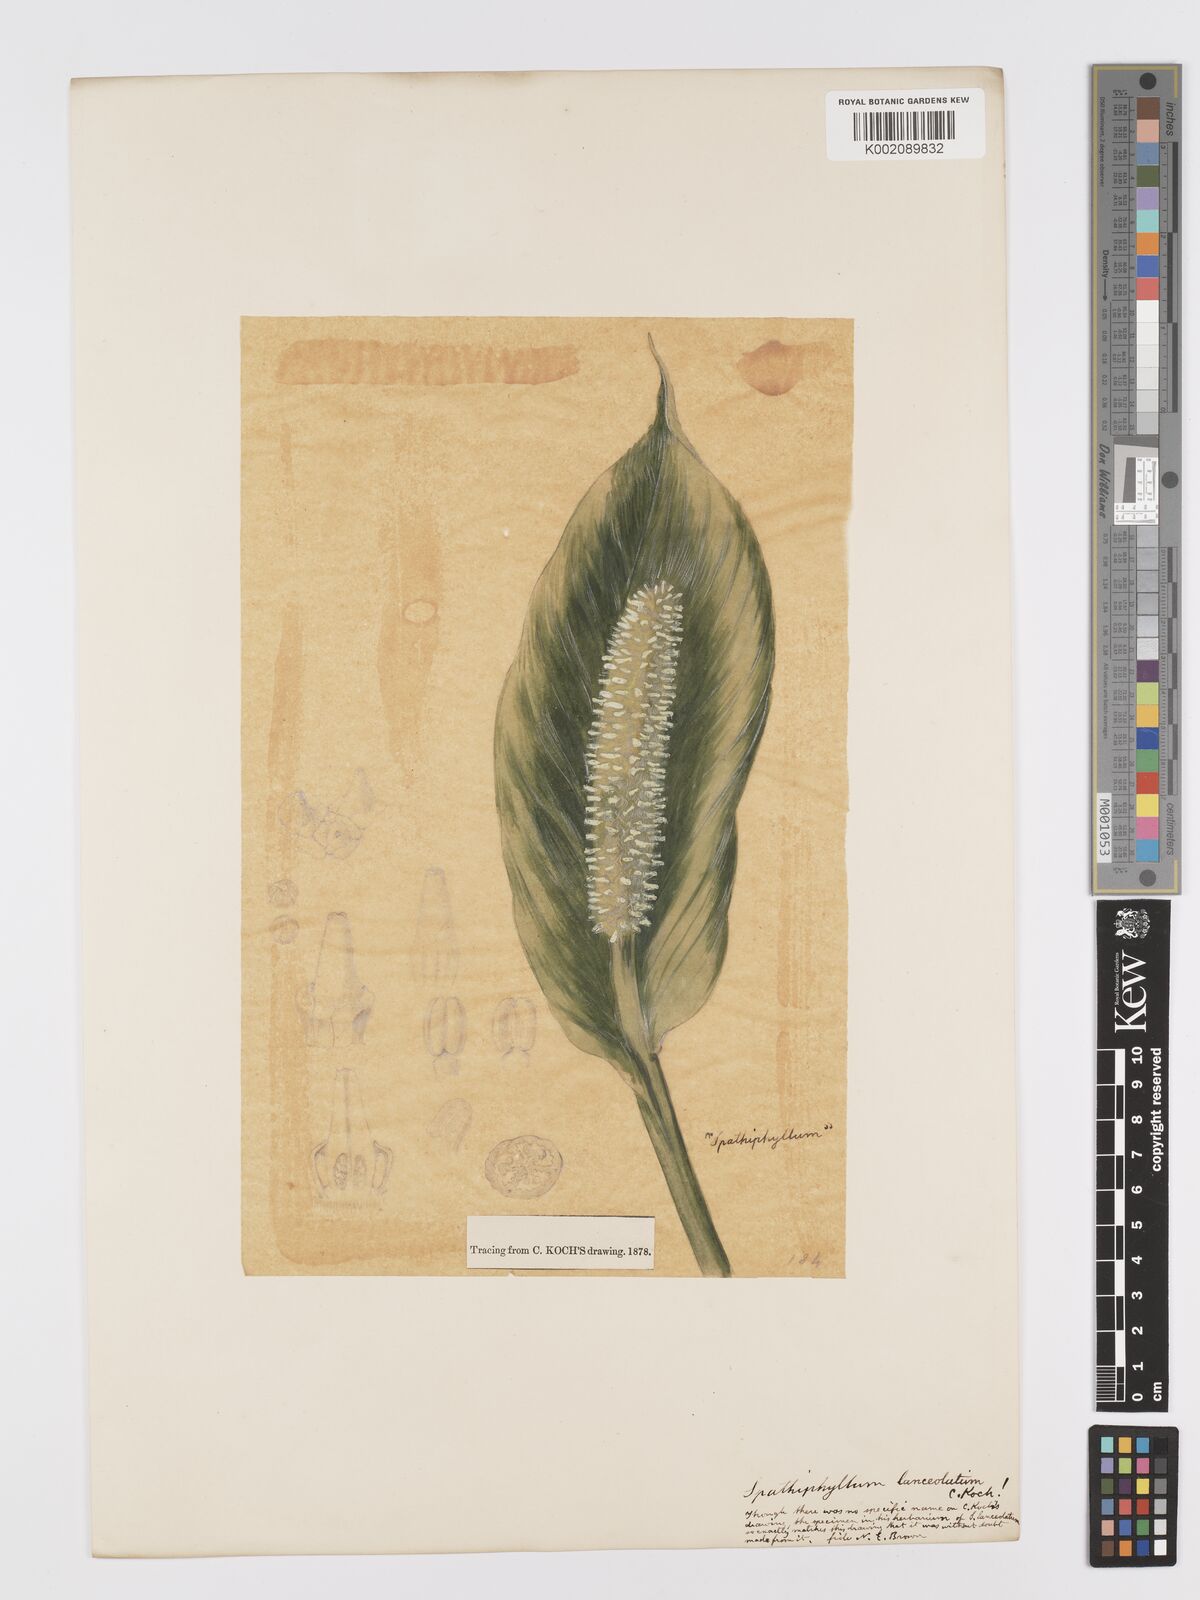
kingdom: Plantae
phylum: Tracheophyta
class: Liliopsida
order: Alismatales
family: Araceae
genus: Spathiphyllum
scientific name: Spathiphyllum cochlearispathum
